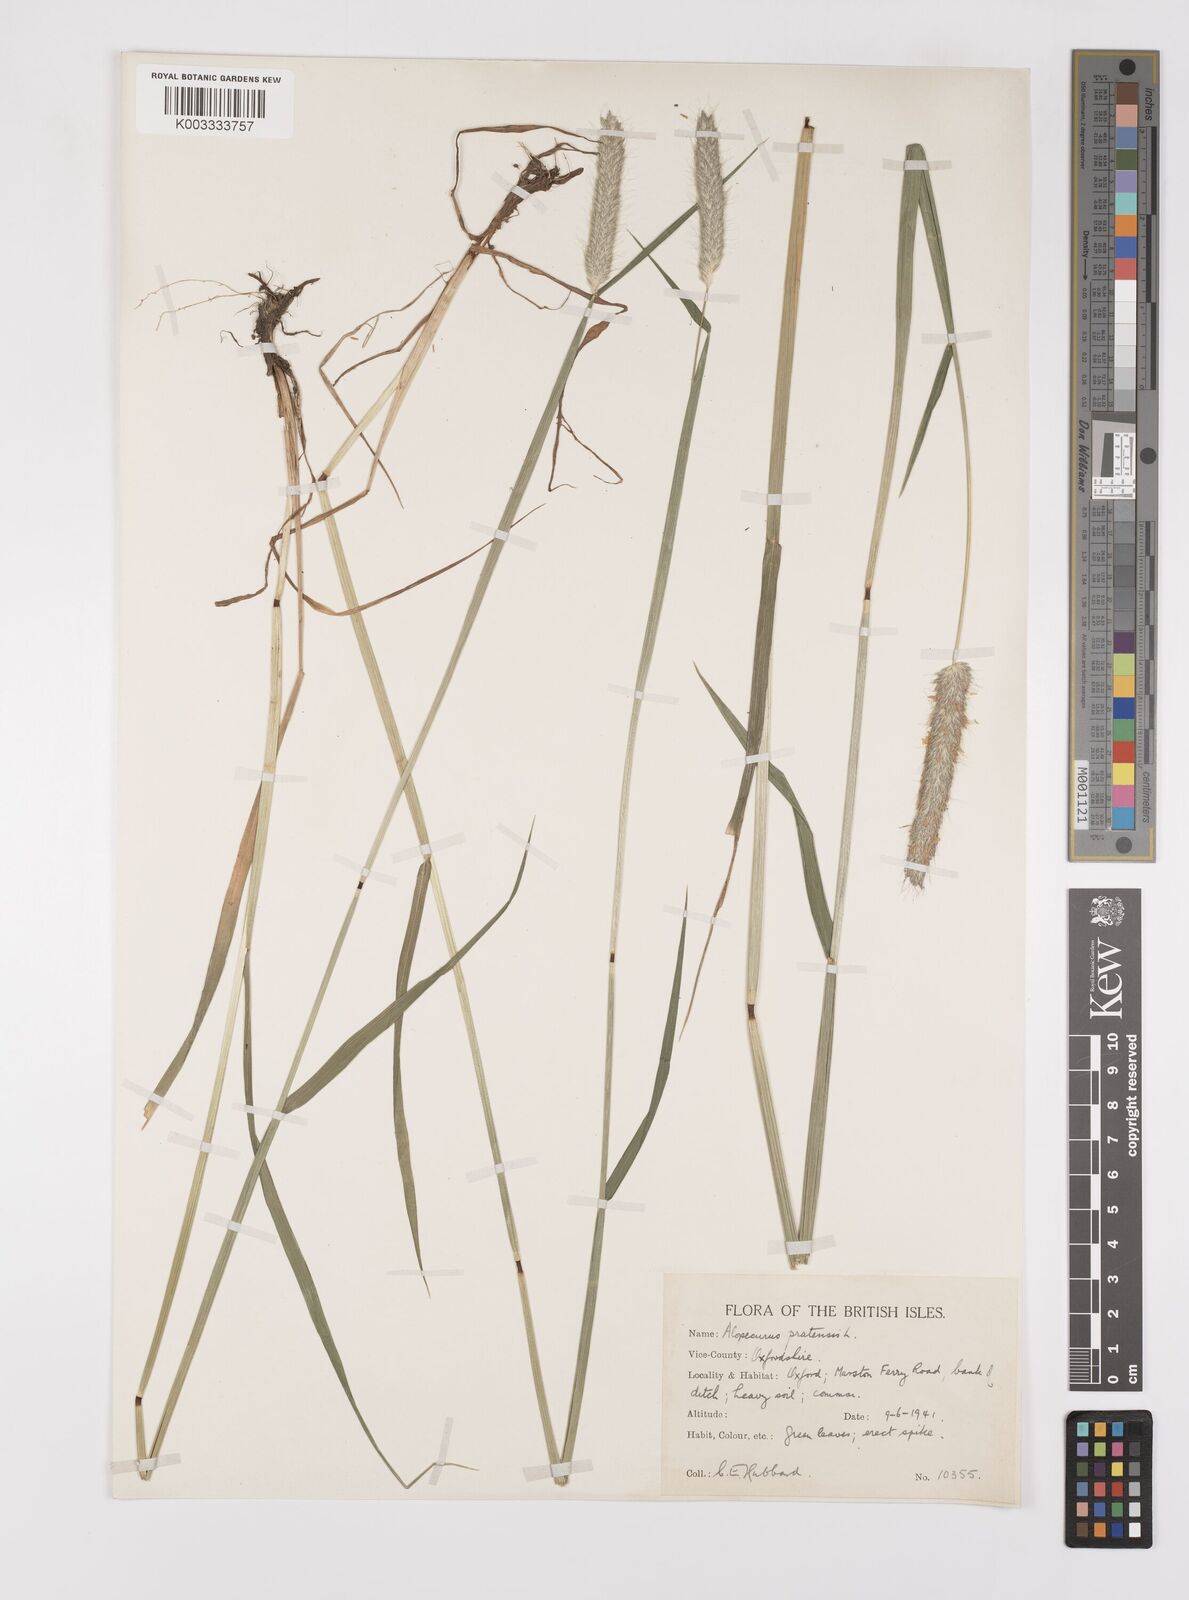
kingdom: Plantae
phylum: Tracheophyta
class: Liliopsida
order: Poales
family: Poaceae
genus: Alopecurus
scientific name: Alopecurus pratensis
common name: Meadow foxtail
